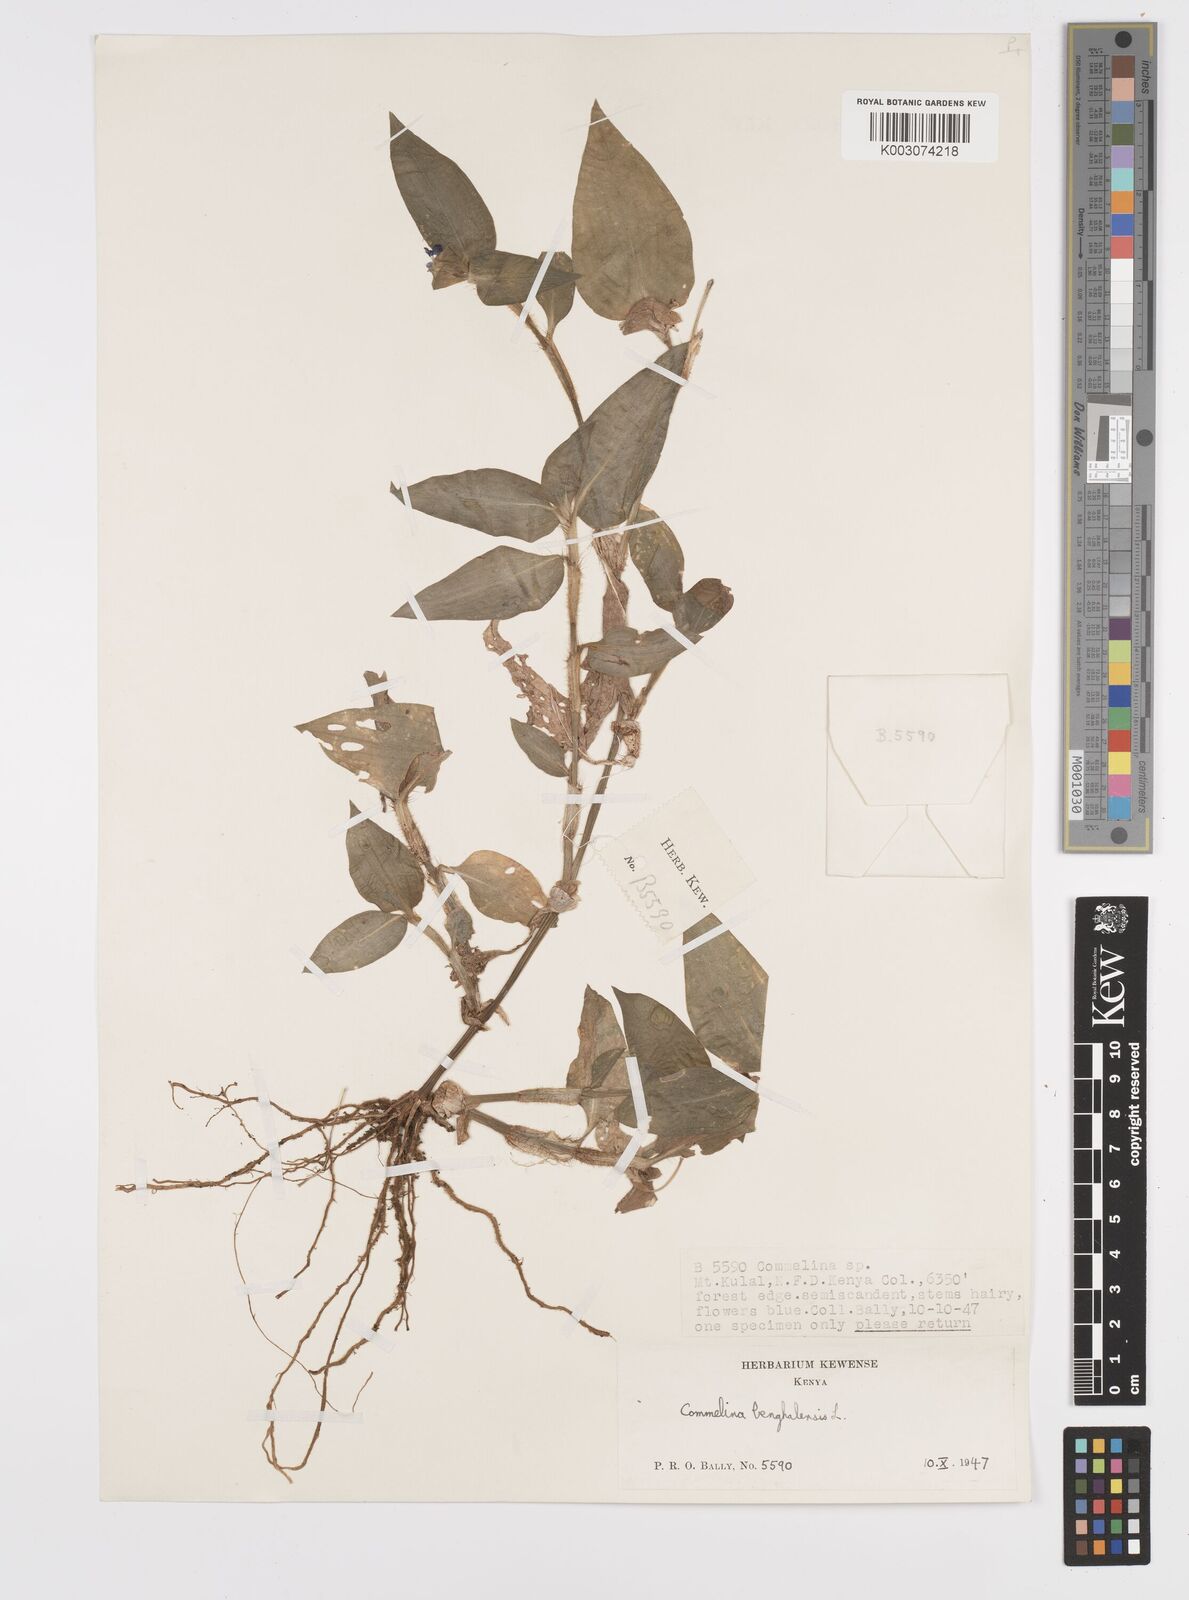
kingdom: Plantae
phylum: Tracheophyta
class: Liliopsida
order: Commelinales
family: Commelinaceae
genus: Commelina
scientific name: Commelina benghalensis
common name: Jio
